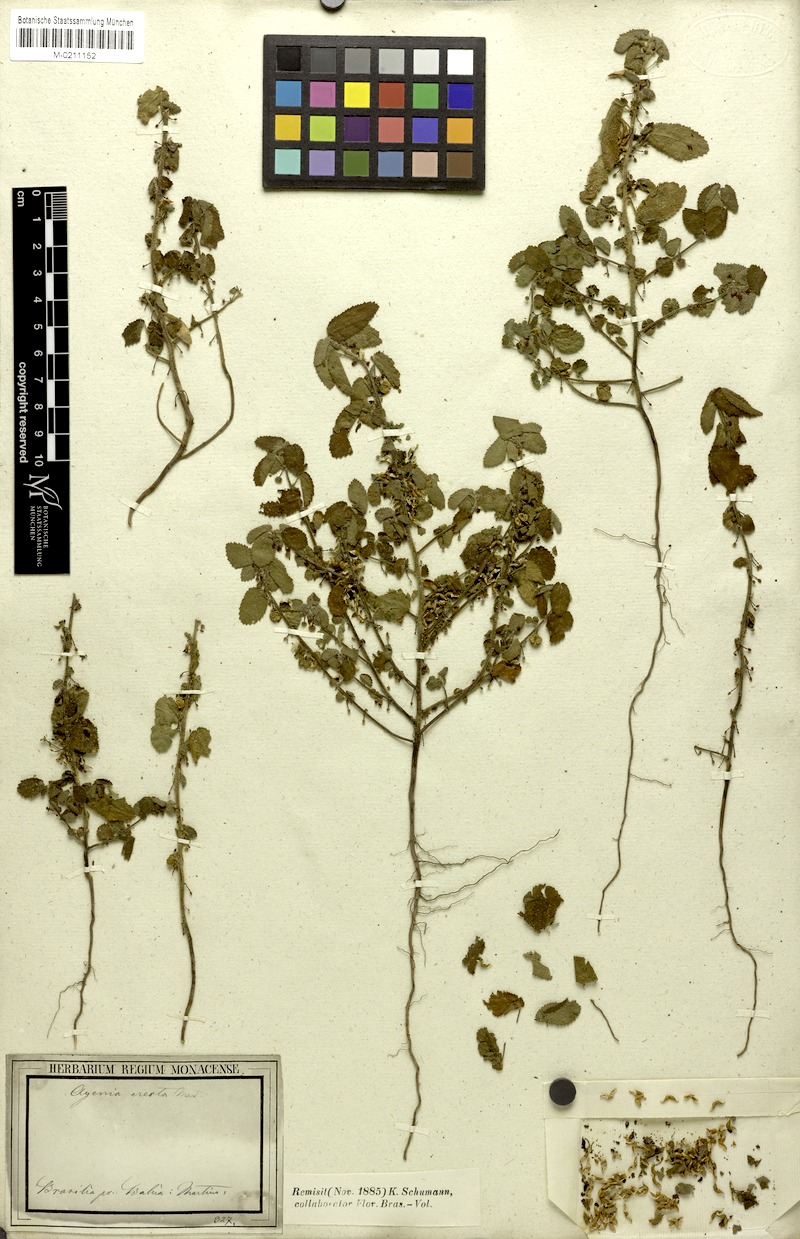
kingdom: Plantae
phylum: Tracheophyta
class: Magnoliopsida
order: Malvales
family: Malvaceae
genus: Ayenia
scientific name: Ayenia erecta
